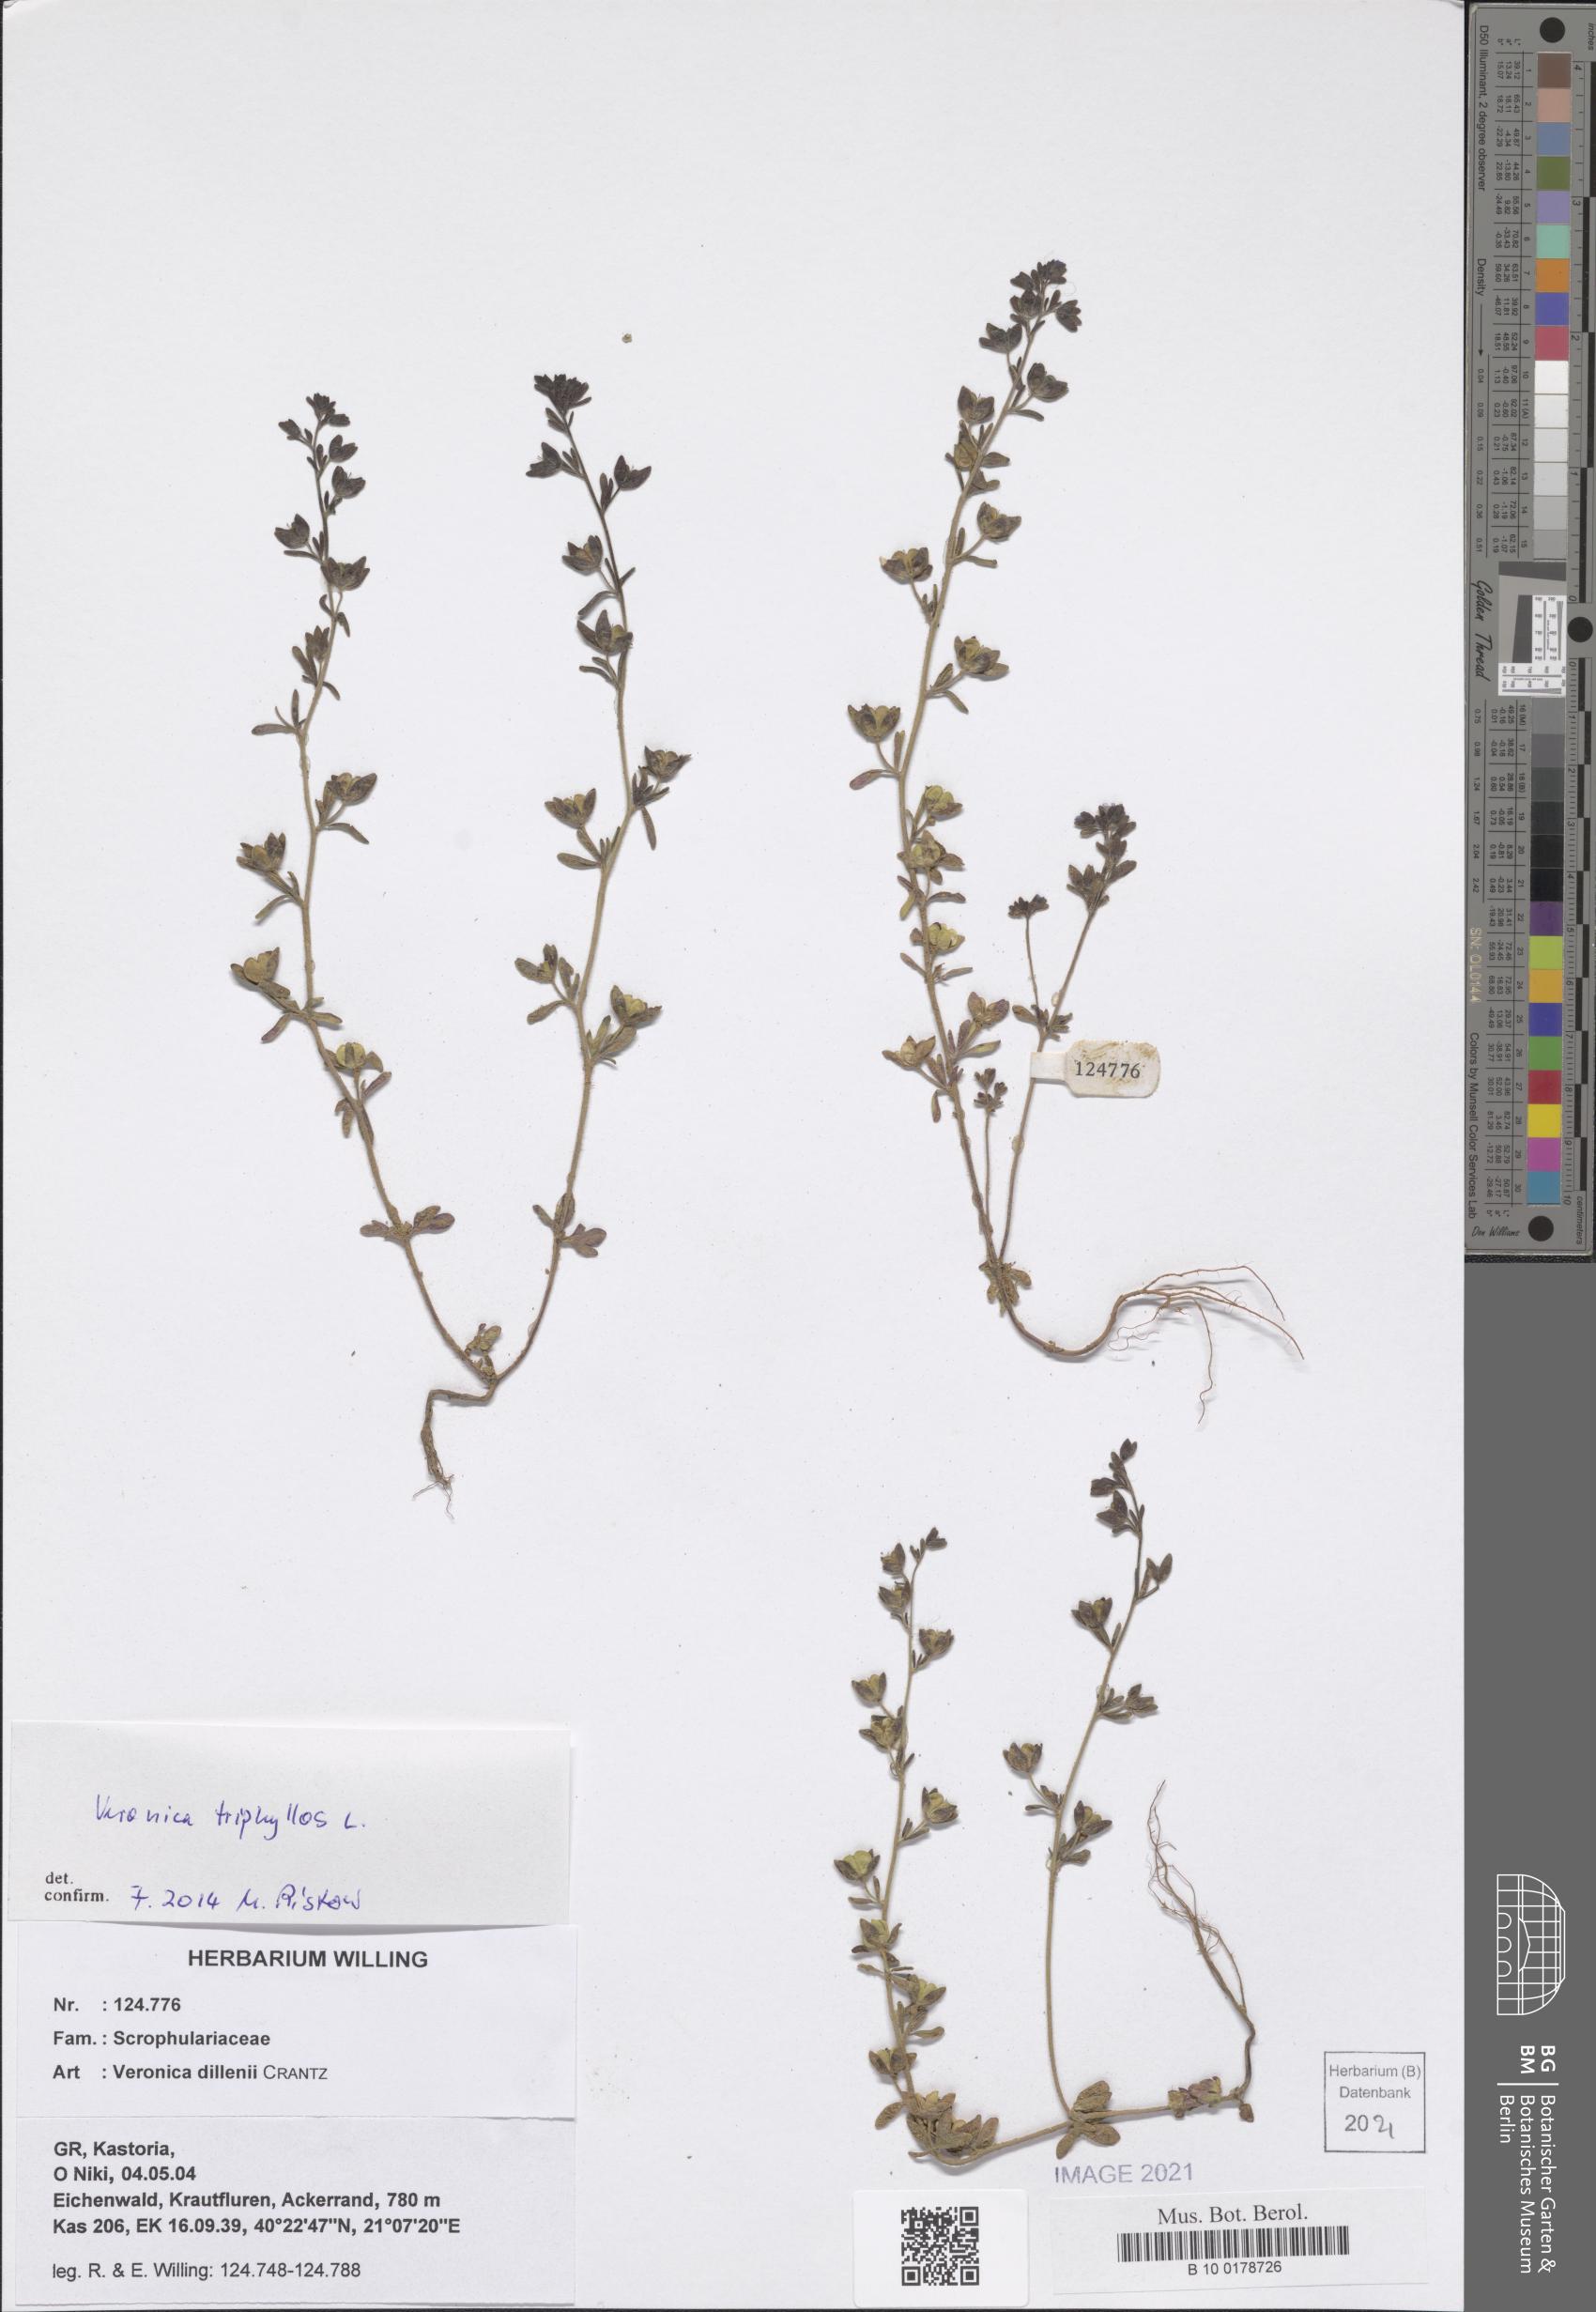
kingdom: Plantae
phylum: Tracheophyta
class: Magnoliopsida
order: Lamiales
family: Plantaginaceae
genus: Veronica
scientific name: Veronica triphyllos
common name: Fingered speedwell
